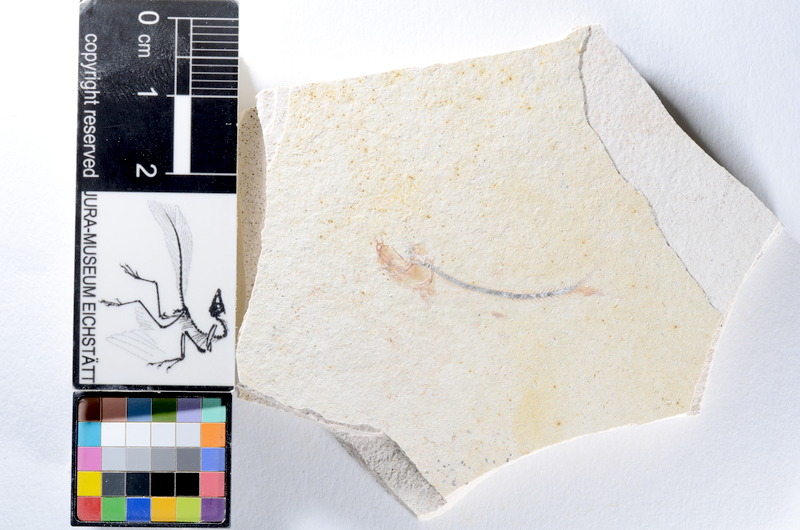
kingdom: Animalia
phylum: Chordata
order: Salmoniformes
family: Orthogonikleithridae
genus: Orthogonikleithrus
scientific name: Orthogonikleithrus hoelli
